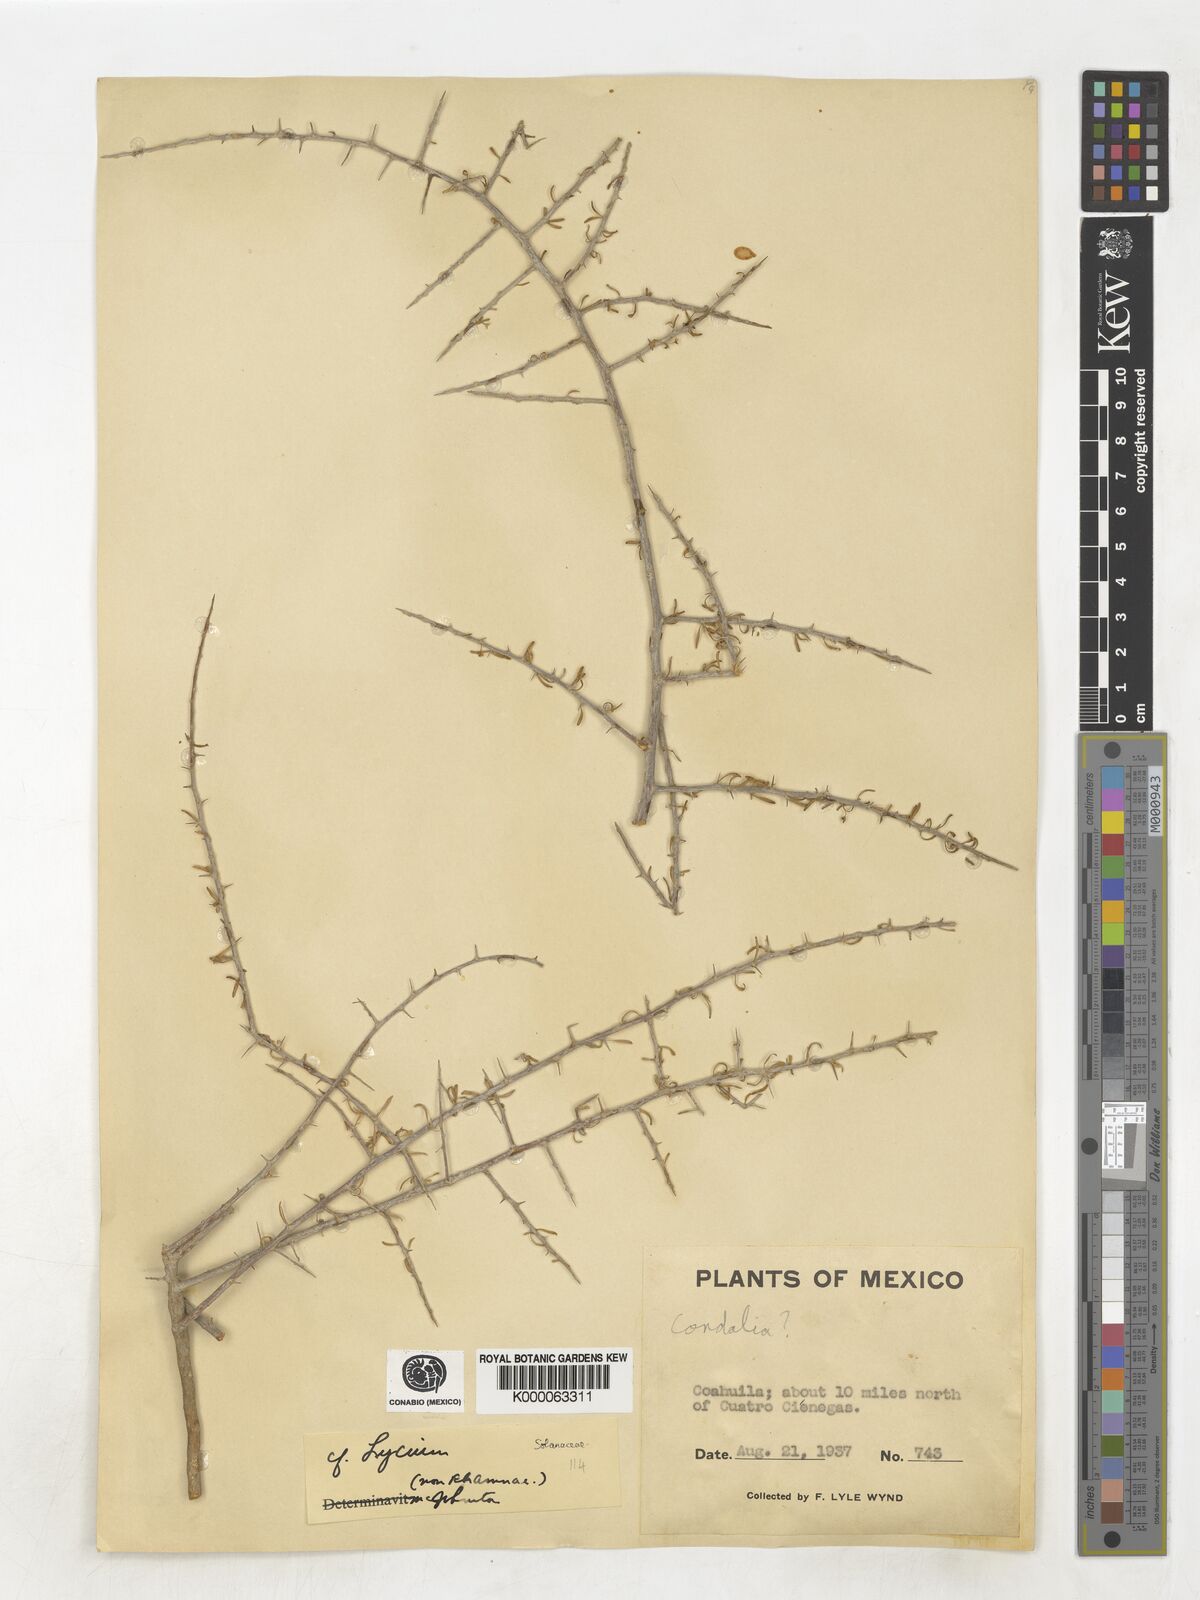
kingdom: Plantae
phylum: Tracheophyta
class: Magnoliopsida
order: Solanales
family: Solanaceae
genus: Lycium
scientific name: Lycium
